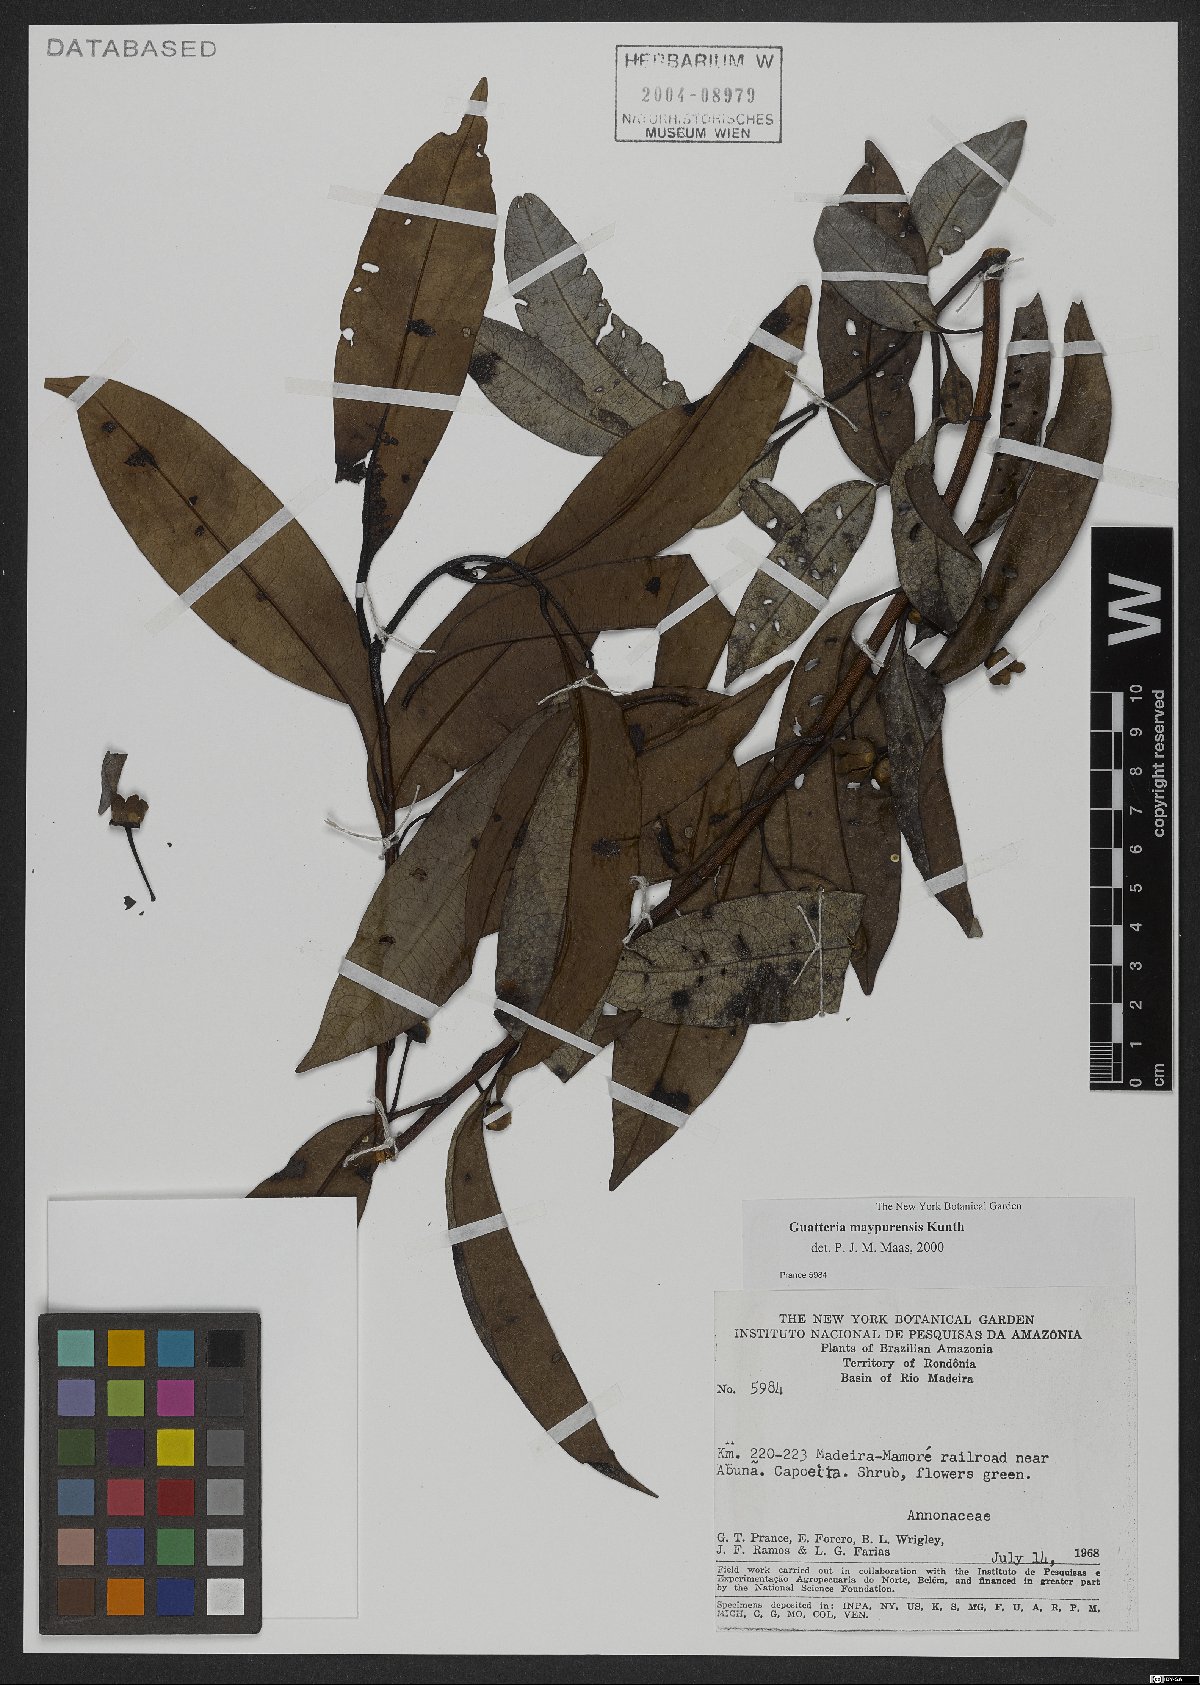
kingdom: Plantae
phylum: Tracheophyta
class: Magnoliopsida
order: Magnoliales
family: Annonaceae
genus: Guatteria
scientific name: Guatteria maypurensis
